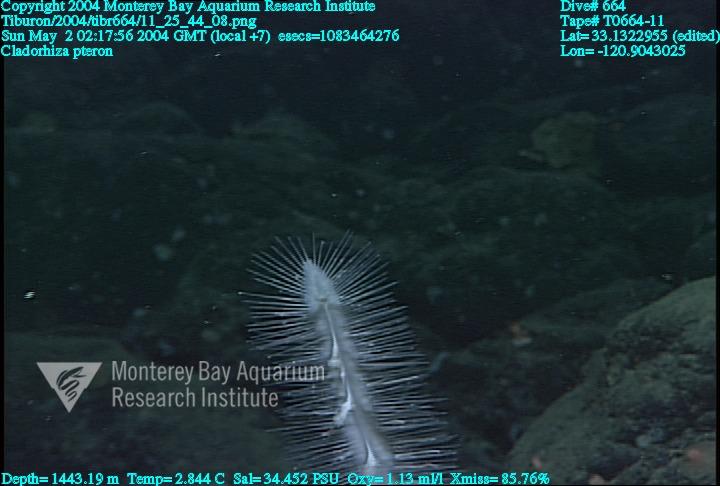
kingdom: Animalia
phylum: Porifera
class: Demospongiae
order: Poecilosclerida
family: Cladorhizidae
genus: Nullarbora
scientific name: Nullarbora pteron
